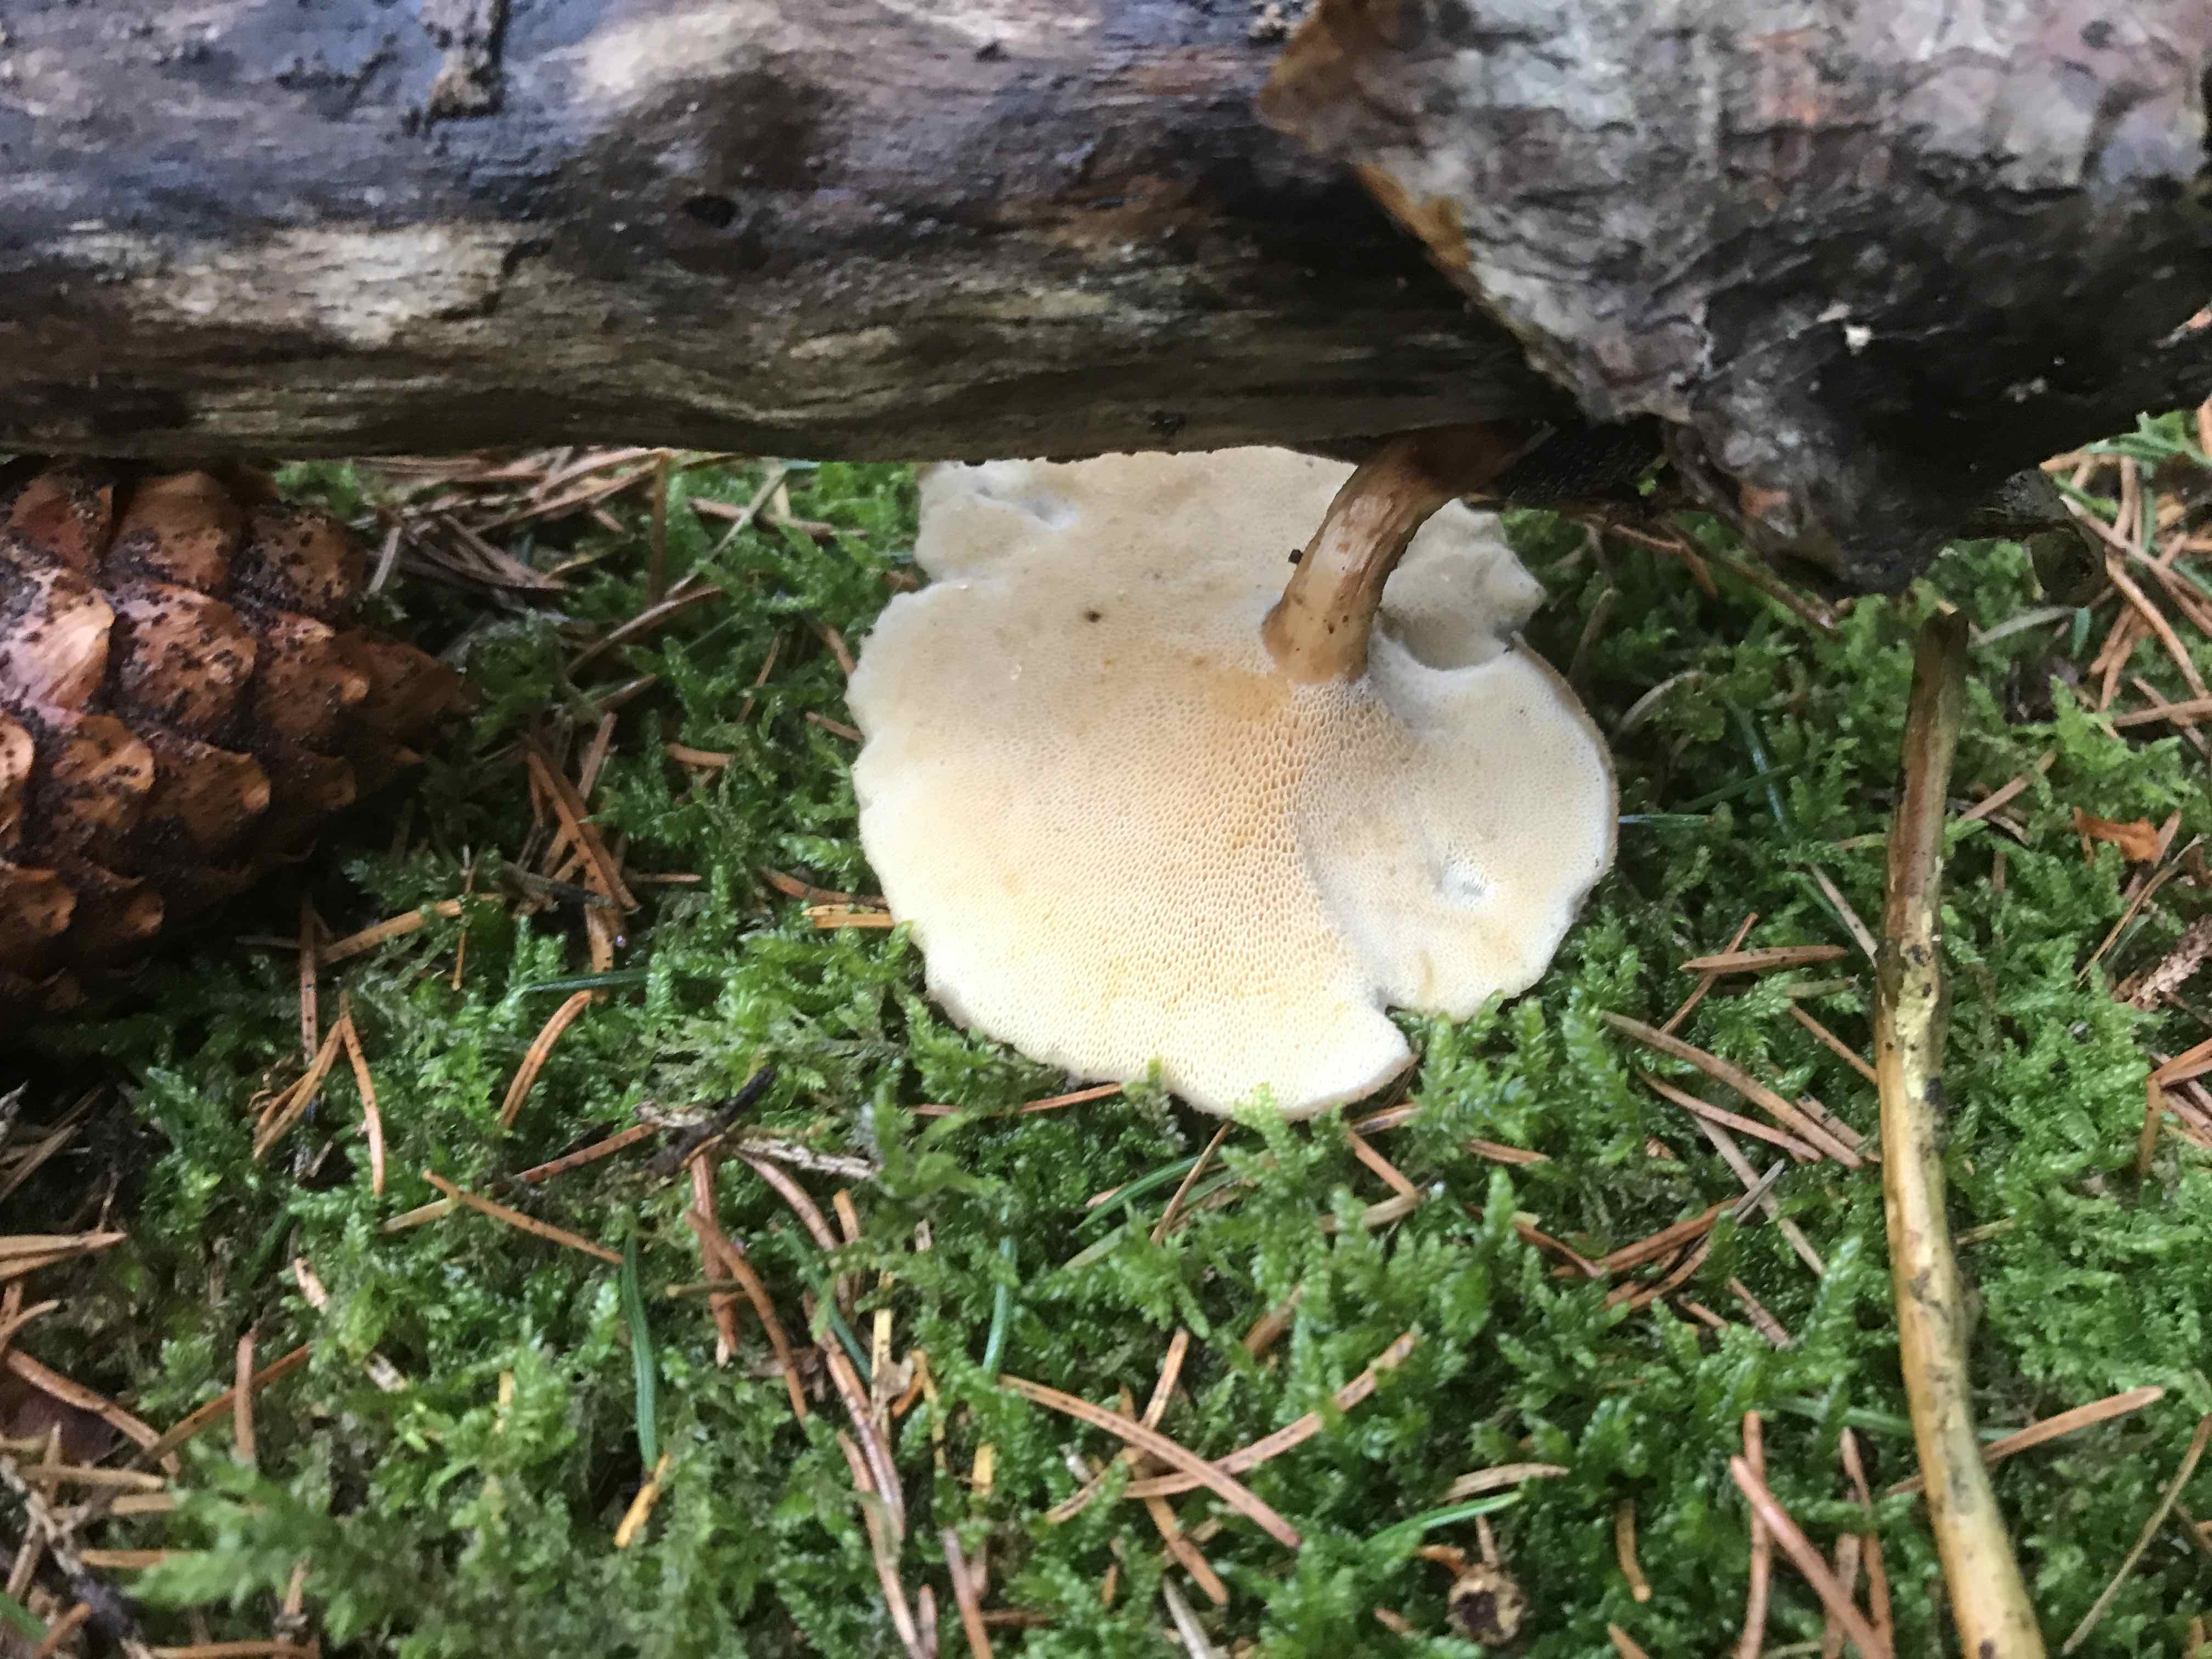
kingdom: Fungi
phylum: Basidiomycota
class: Agaricomycetes
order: Polyporales
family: Polyporaceae
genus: Lentinus
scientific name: Lentinus brumalis
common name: vinter-stilkporesvamp
